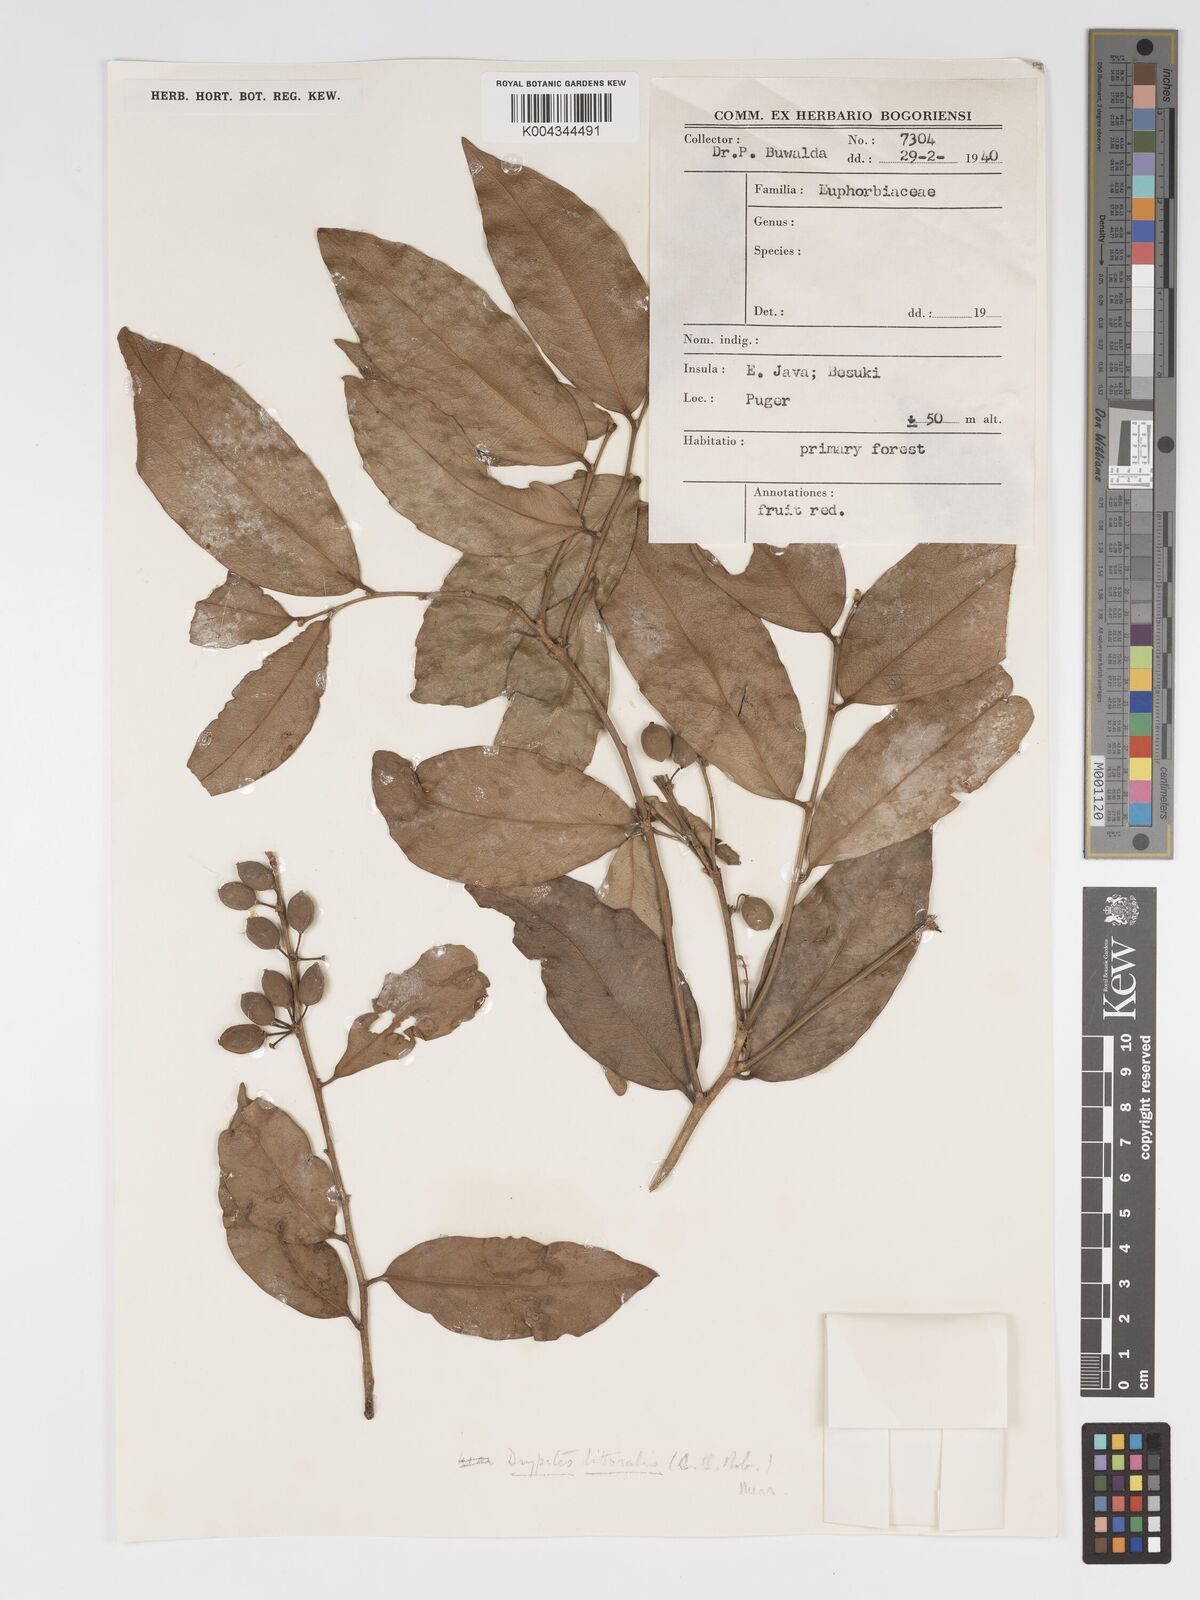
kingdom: Plantae
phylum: Tracheophyta
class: Magnoliopsida
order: Malpighiales
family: Putranjivaceae
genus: Drypetes
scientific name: Drypetes littoralis
